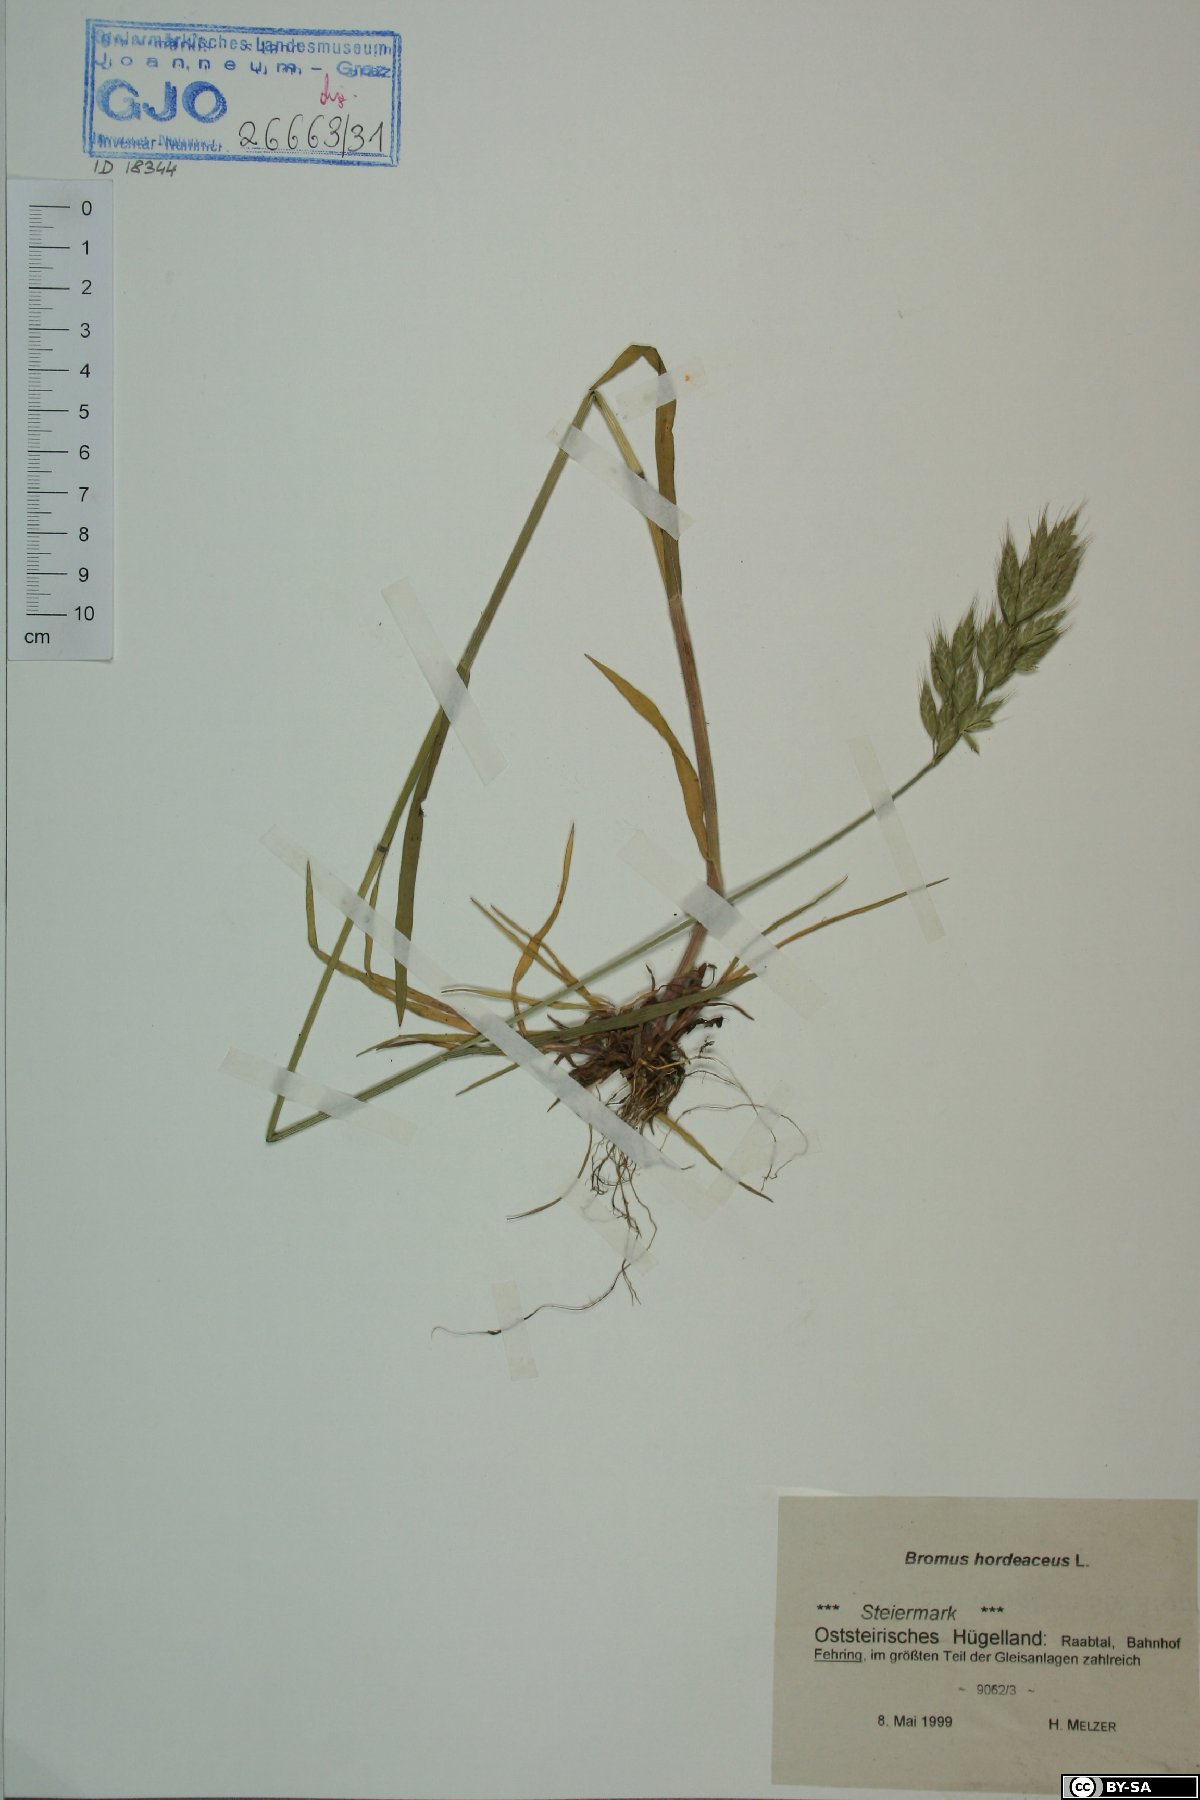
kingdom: Plantae
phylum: Tracheophyta
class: Liliopsida
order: Poales
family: Poaceae
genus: Bromus
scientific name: Bromus hordeaceus
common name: Soft brome
